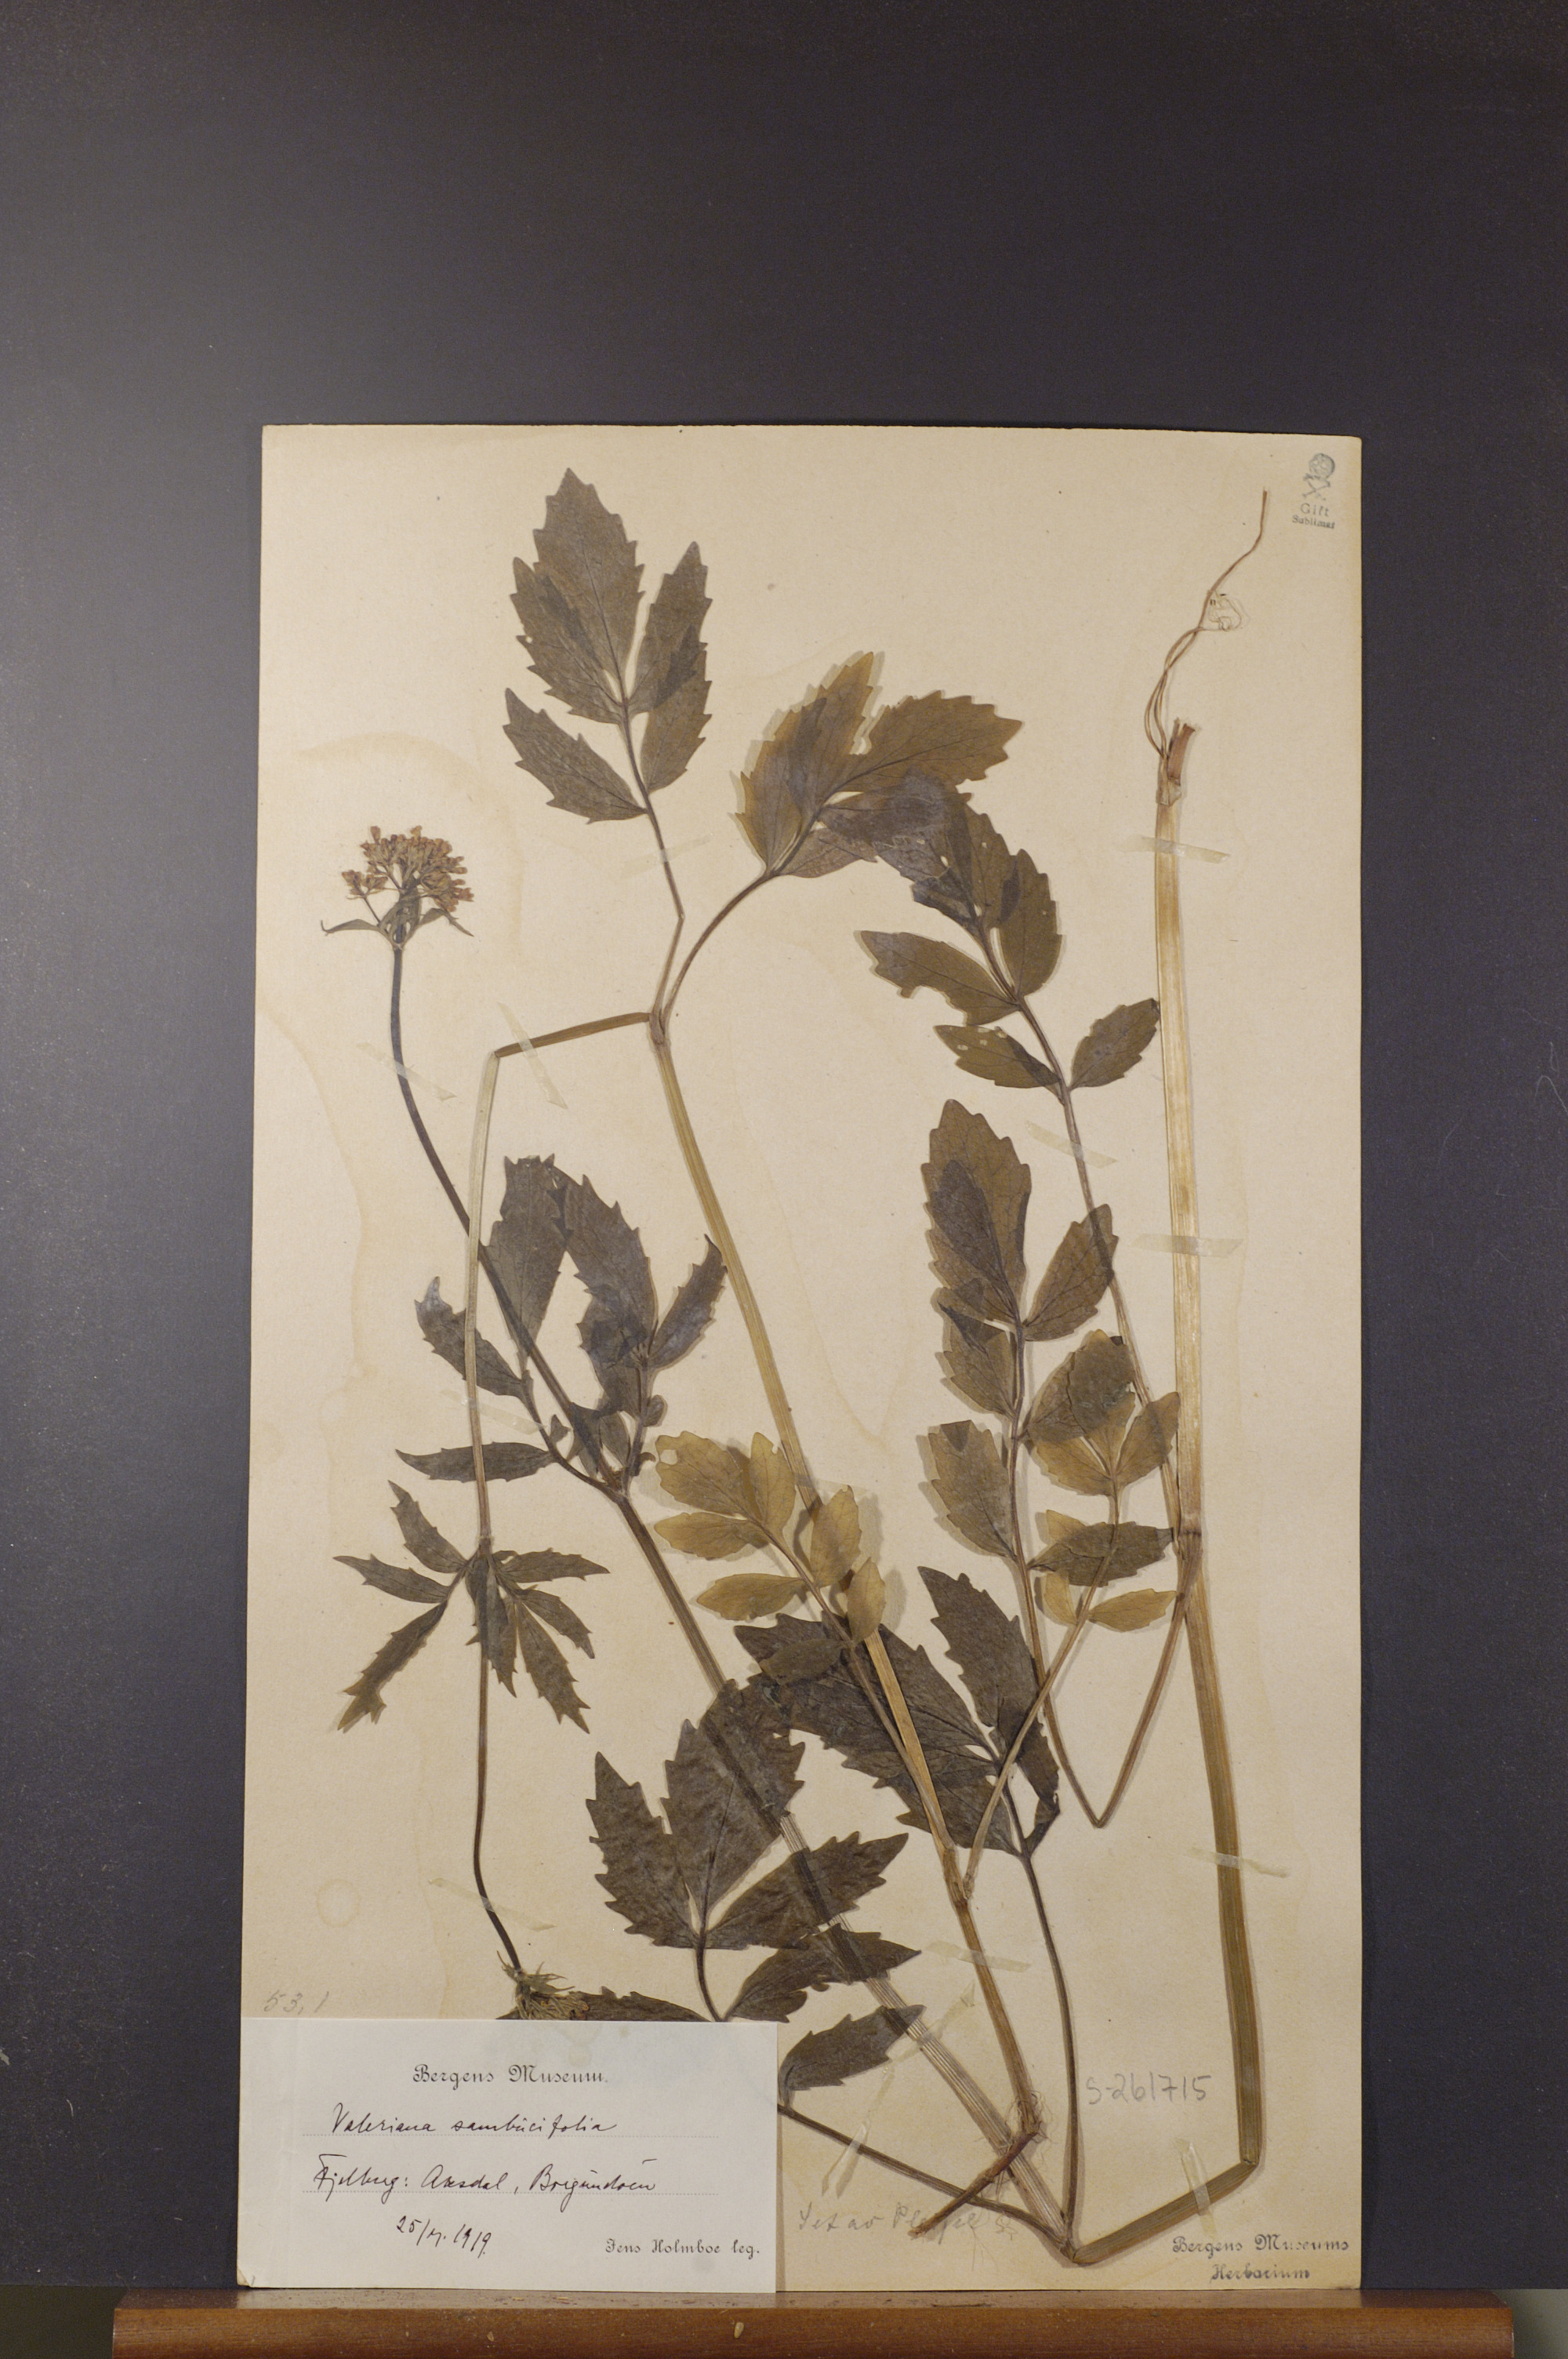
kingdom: Plantae
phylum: Tracheophyta
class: Magnoliopsida
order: Dipsacales
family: Caprifoliaceae
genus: Valeriana
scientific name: Valeriana excelsa
